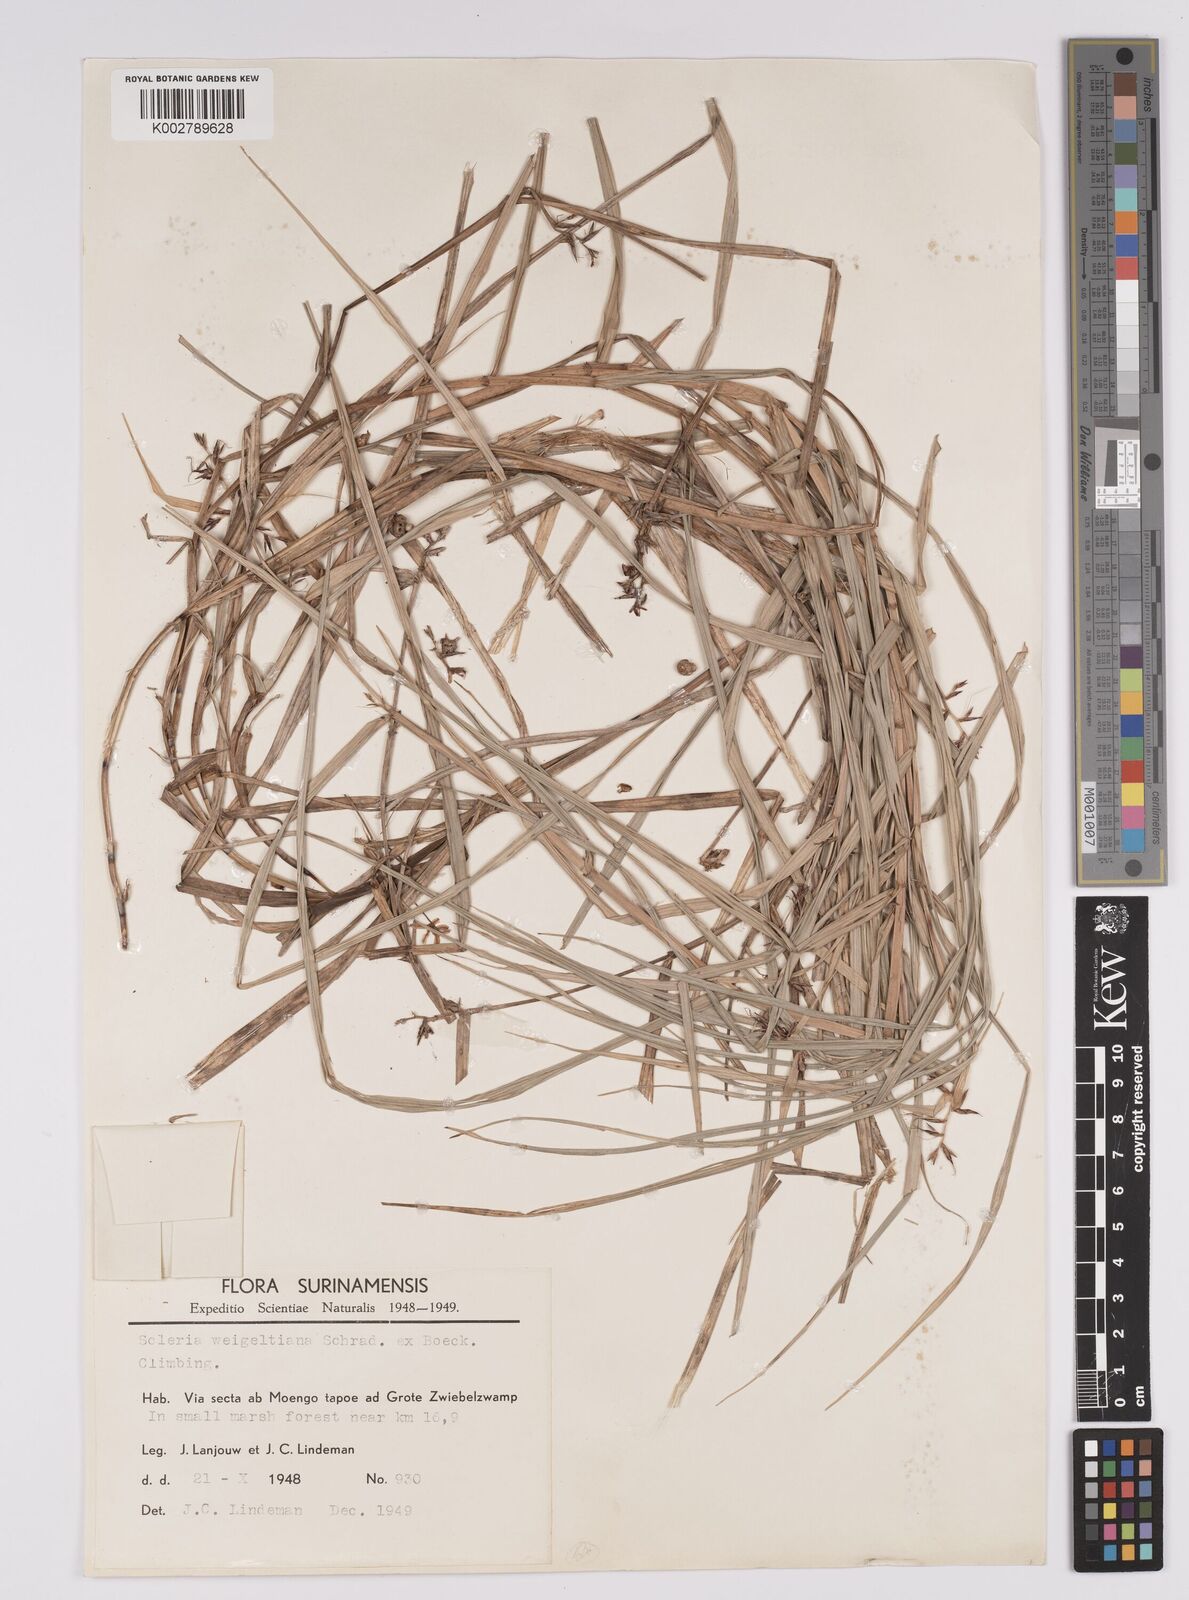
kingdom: Plantae
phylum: Tracheophyta
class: Liliopsida
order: Poales
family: Cyperaceae
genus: Scleria
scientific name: Scleria secans
